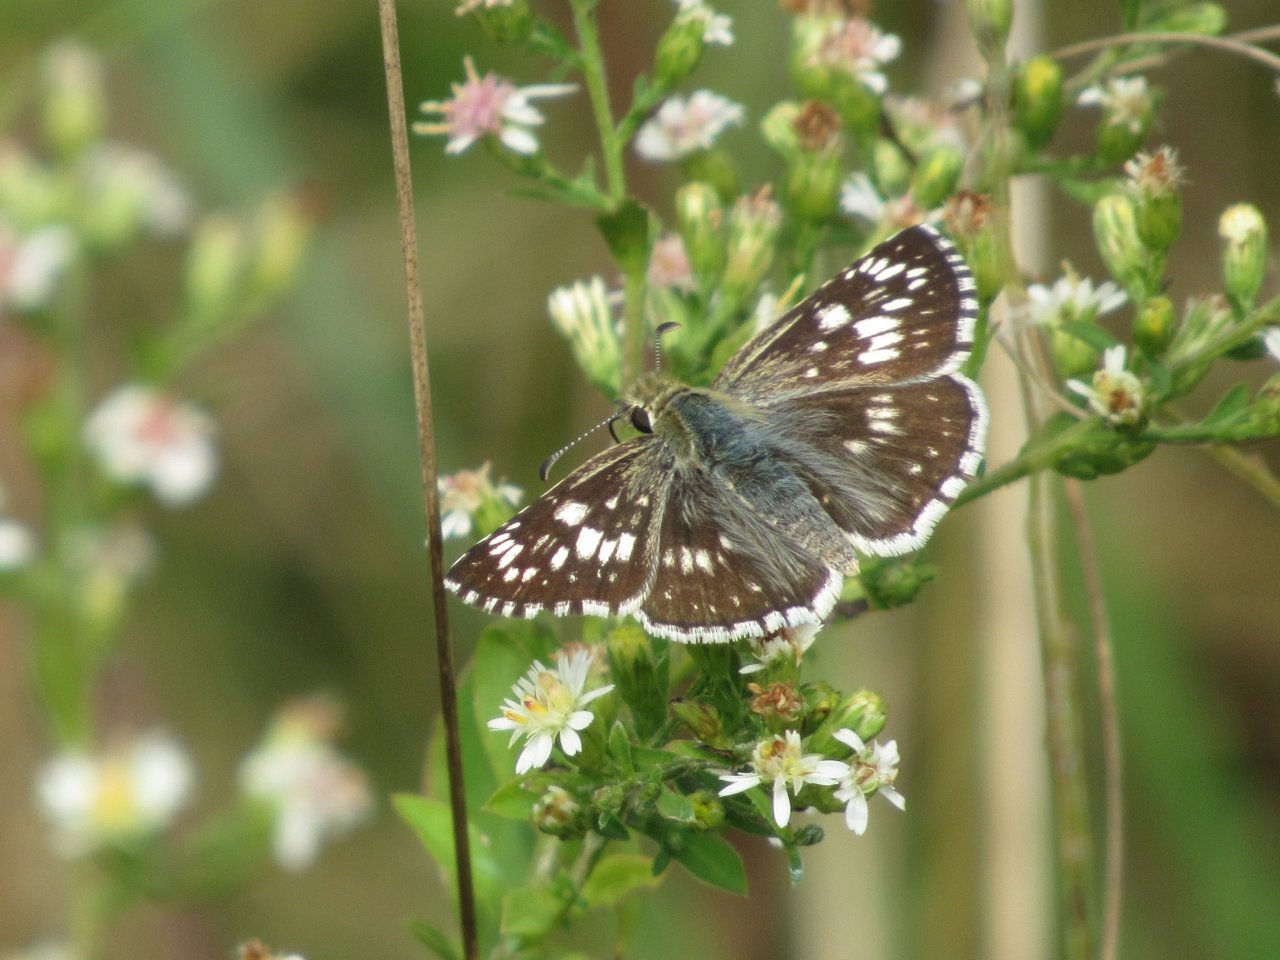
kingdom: Animalia
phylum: Arthropoda
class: Insecta
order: Lepidoptera
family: Hesperiidae
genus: Pyrgus
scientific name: Pyrgus communis
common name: Common Checkered-Skipper
